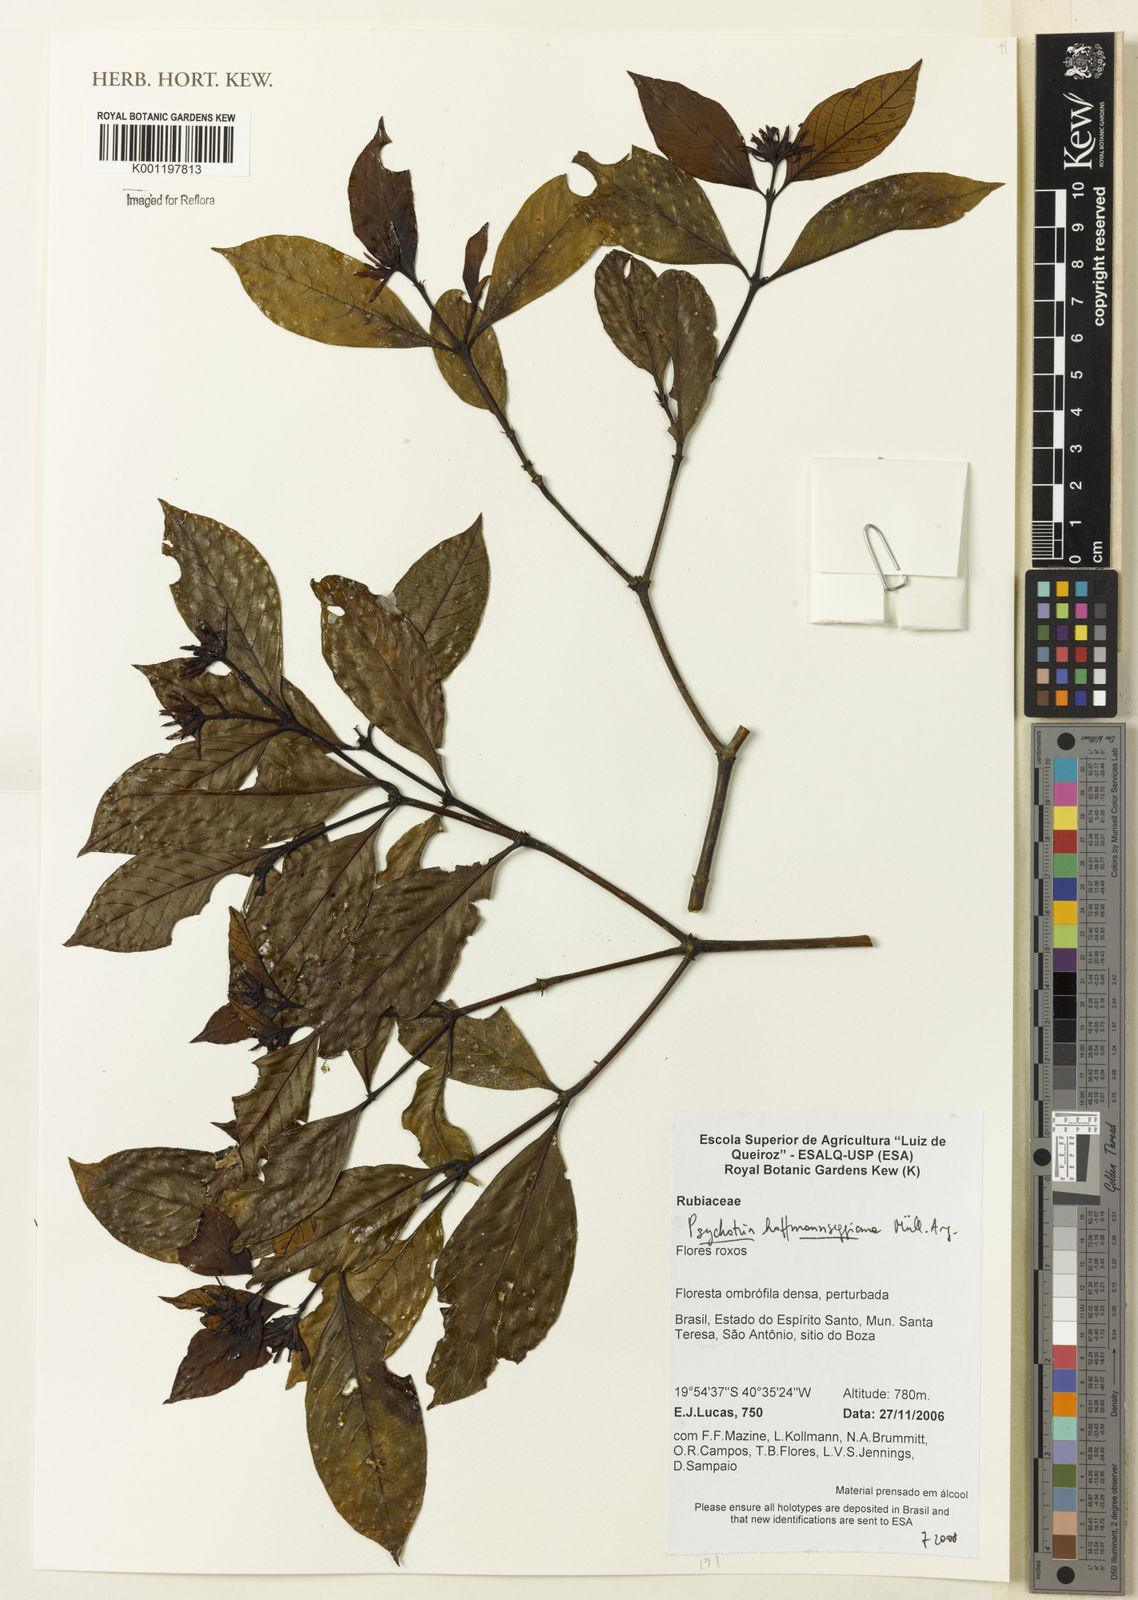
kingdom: Plantae
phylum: Tracheophyta
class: Magnoliopsida
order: Gentianales
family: Rubiaceae
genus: Psychotria
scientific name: Psychotria
